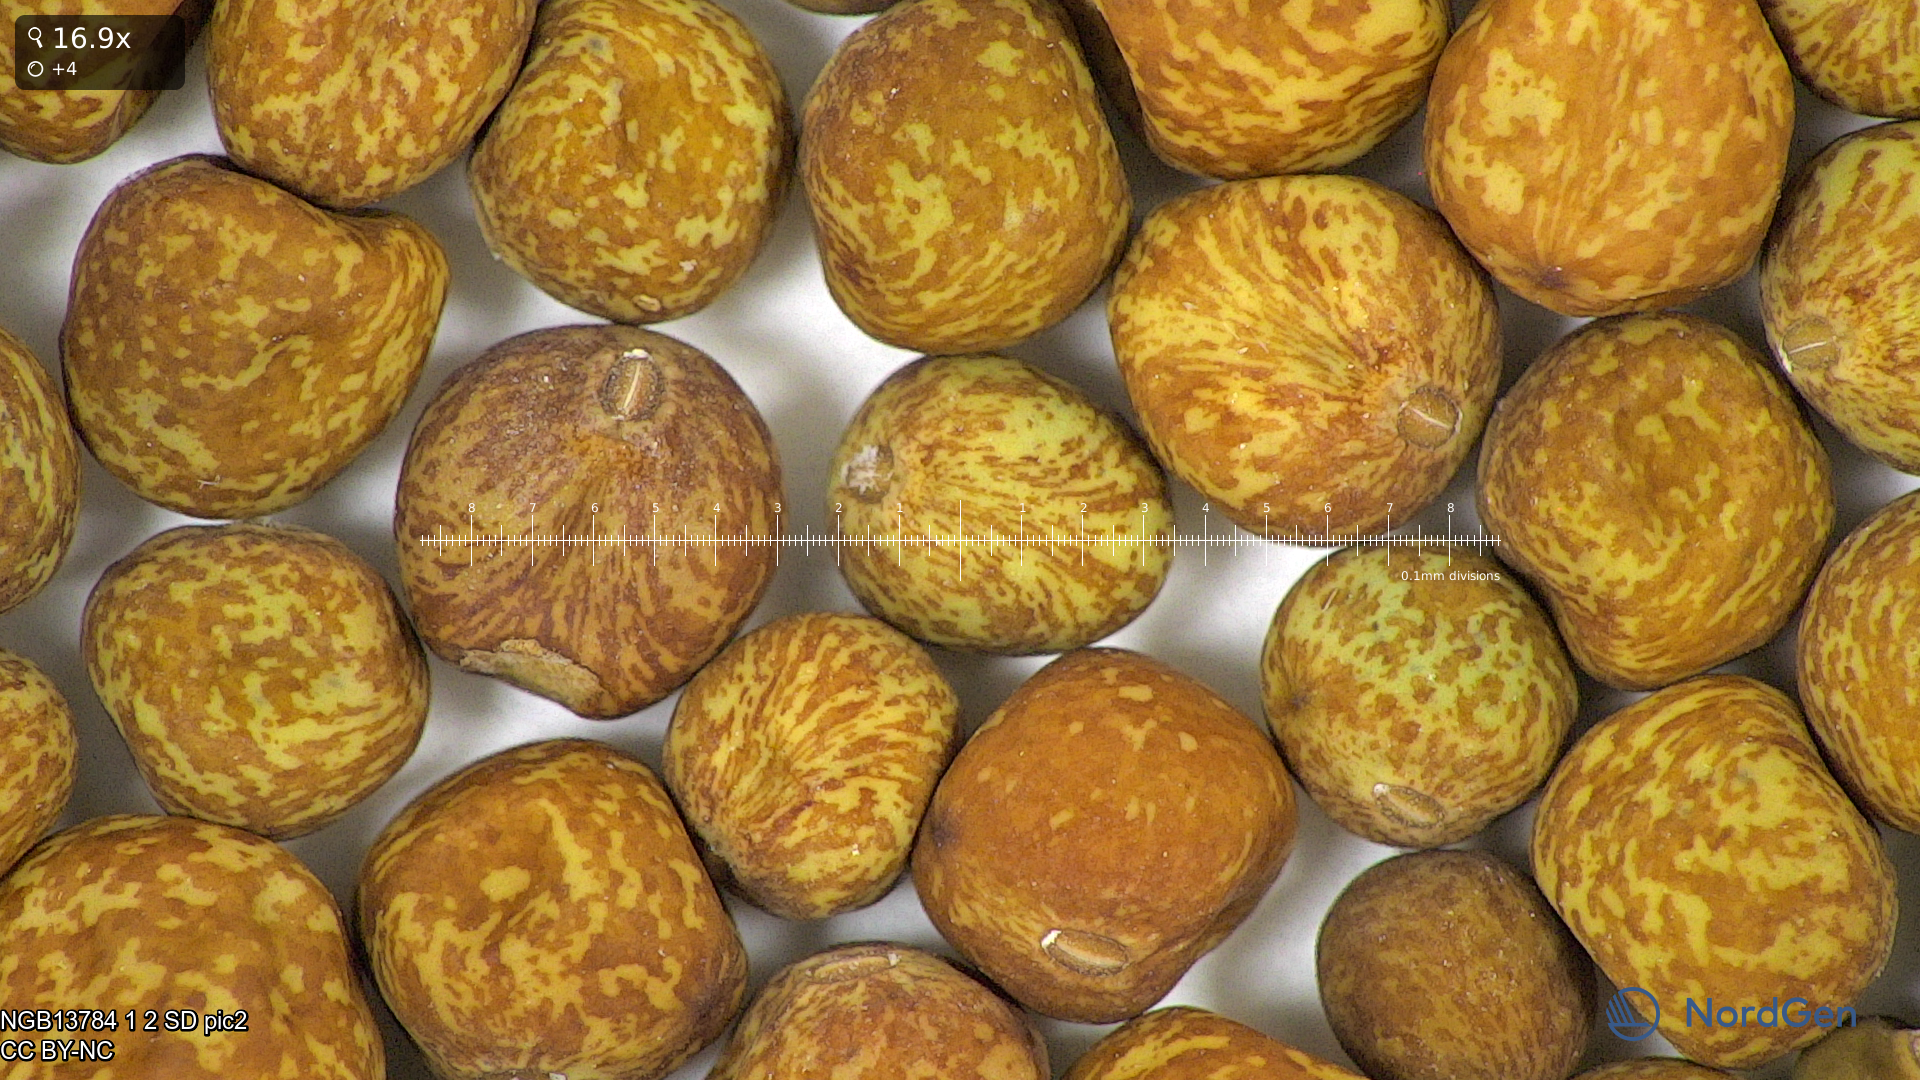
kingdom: Plantae
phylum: Tracheophyta
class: Magnoliopsida
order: Fabales
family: Fabaceae
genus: Lathyrus
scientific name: Lathyrus oleraceus
